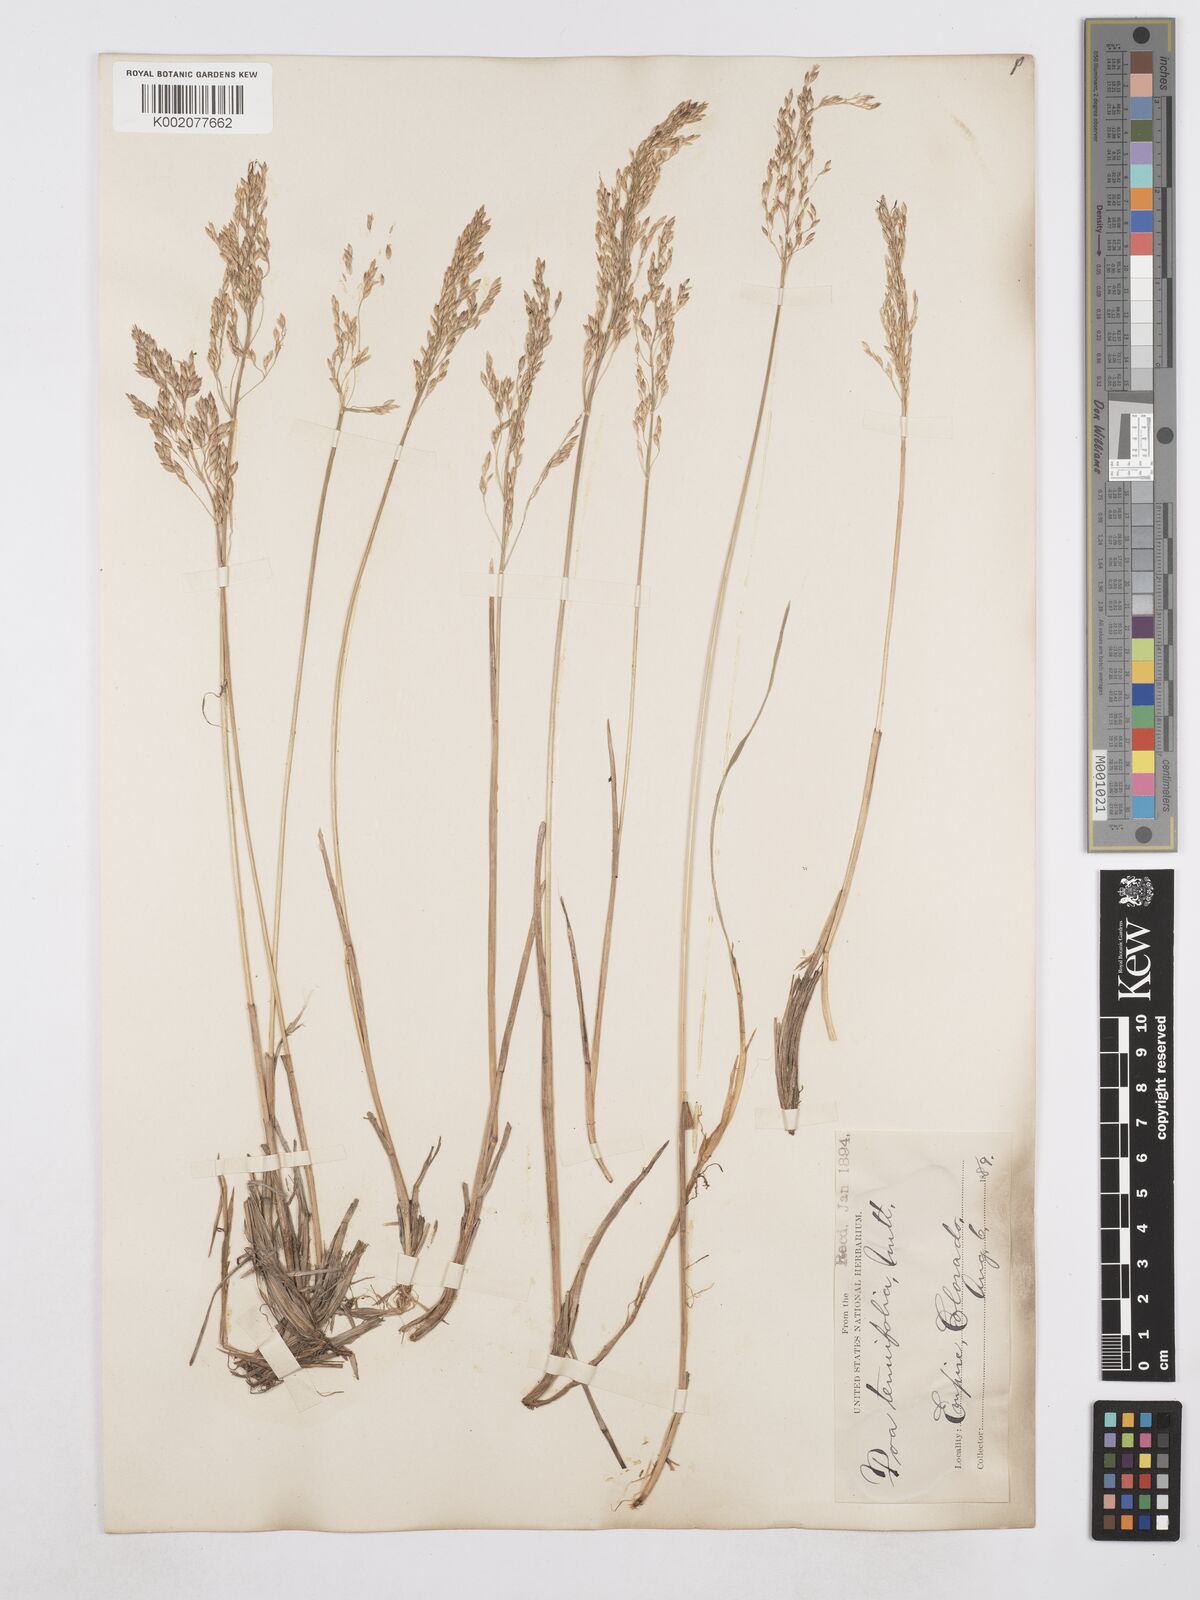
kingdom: Plantae
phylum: Tracheophyta
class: Liliopsida
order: Poales
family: Poaceae
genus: Poa
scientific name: Poa secunda
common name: Sandberg bluegrass
